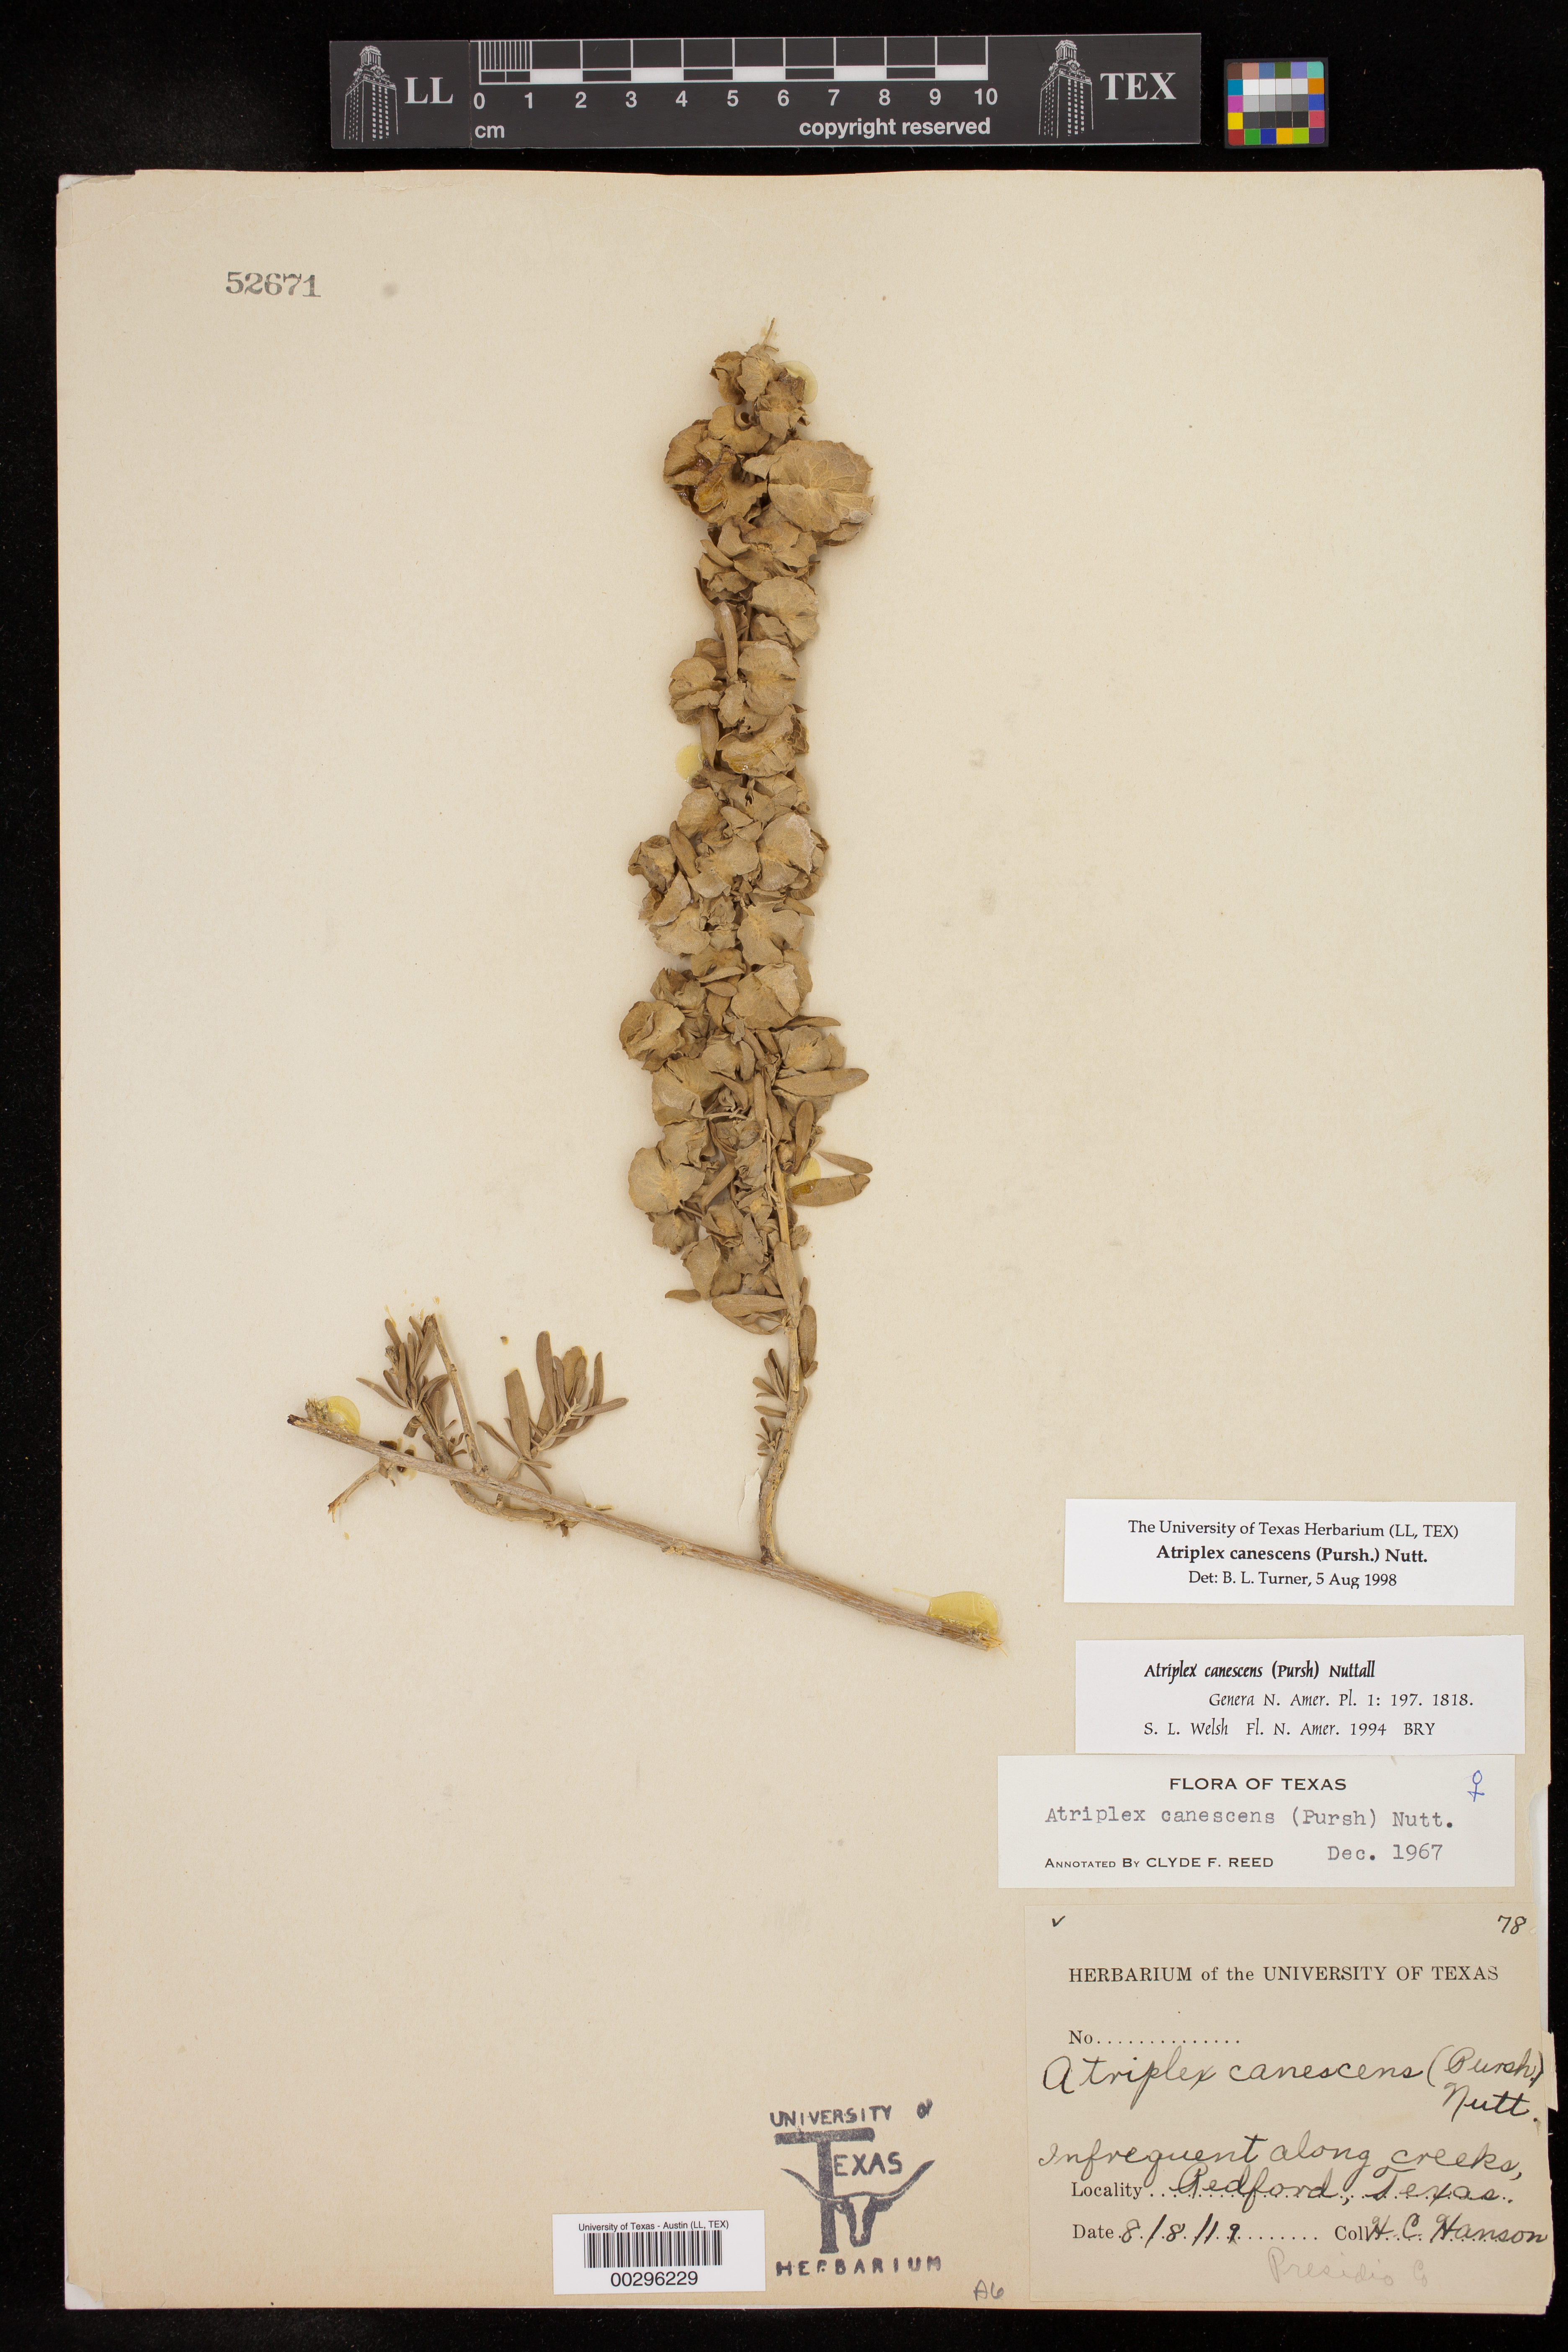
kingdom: Plantae
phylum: Tracheophyta
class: Magnoliopsida
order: Caryophyllales
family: Amaranthaceae
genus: Atriplex
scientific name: Atriplex canescens
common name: Four-wing saltbush
